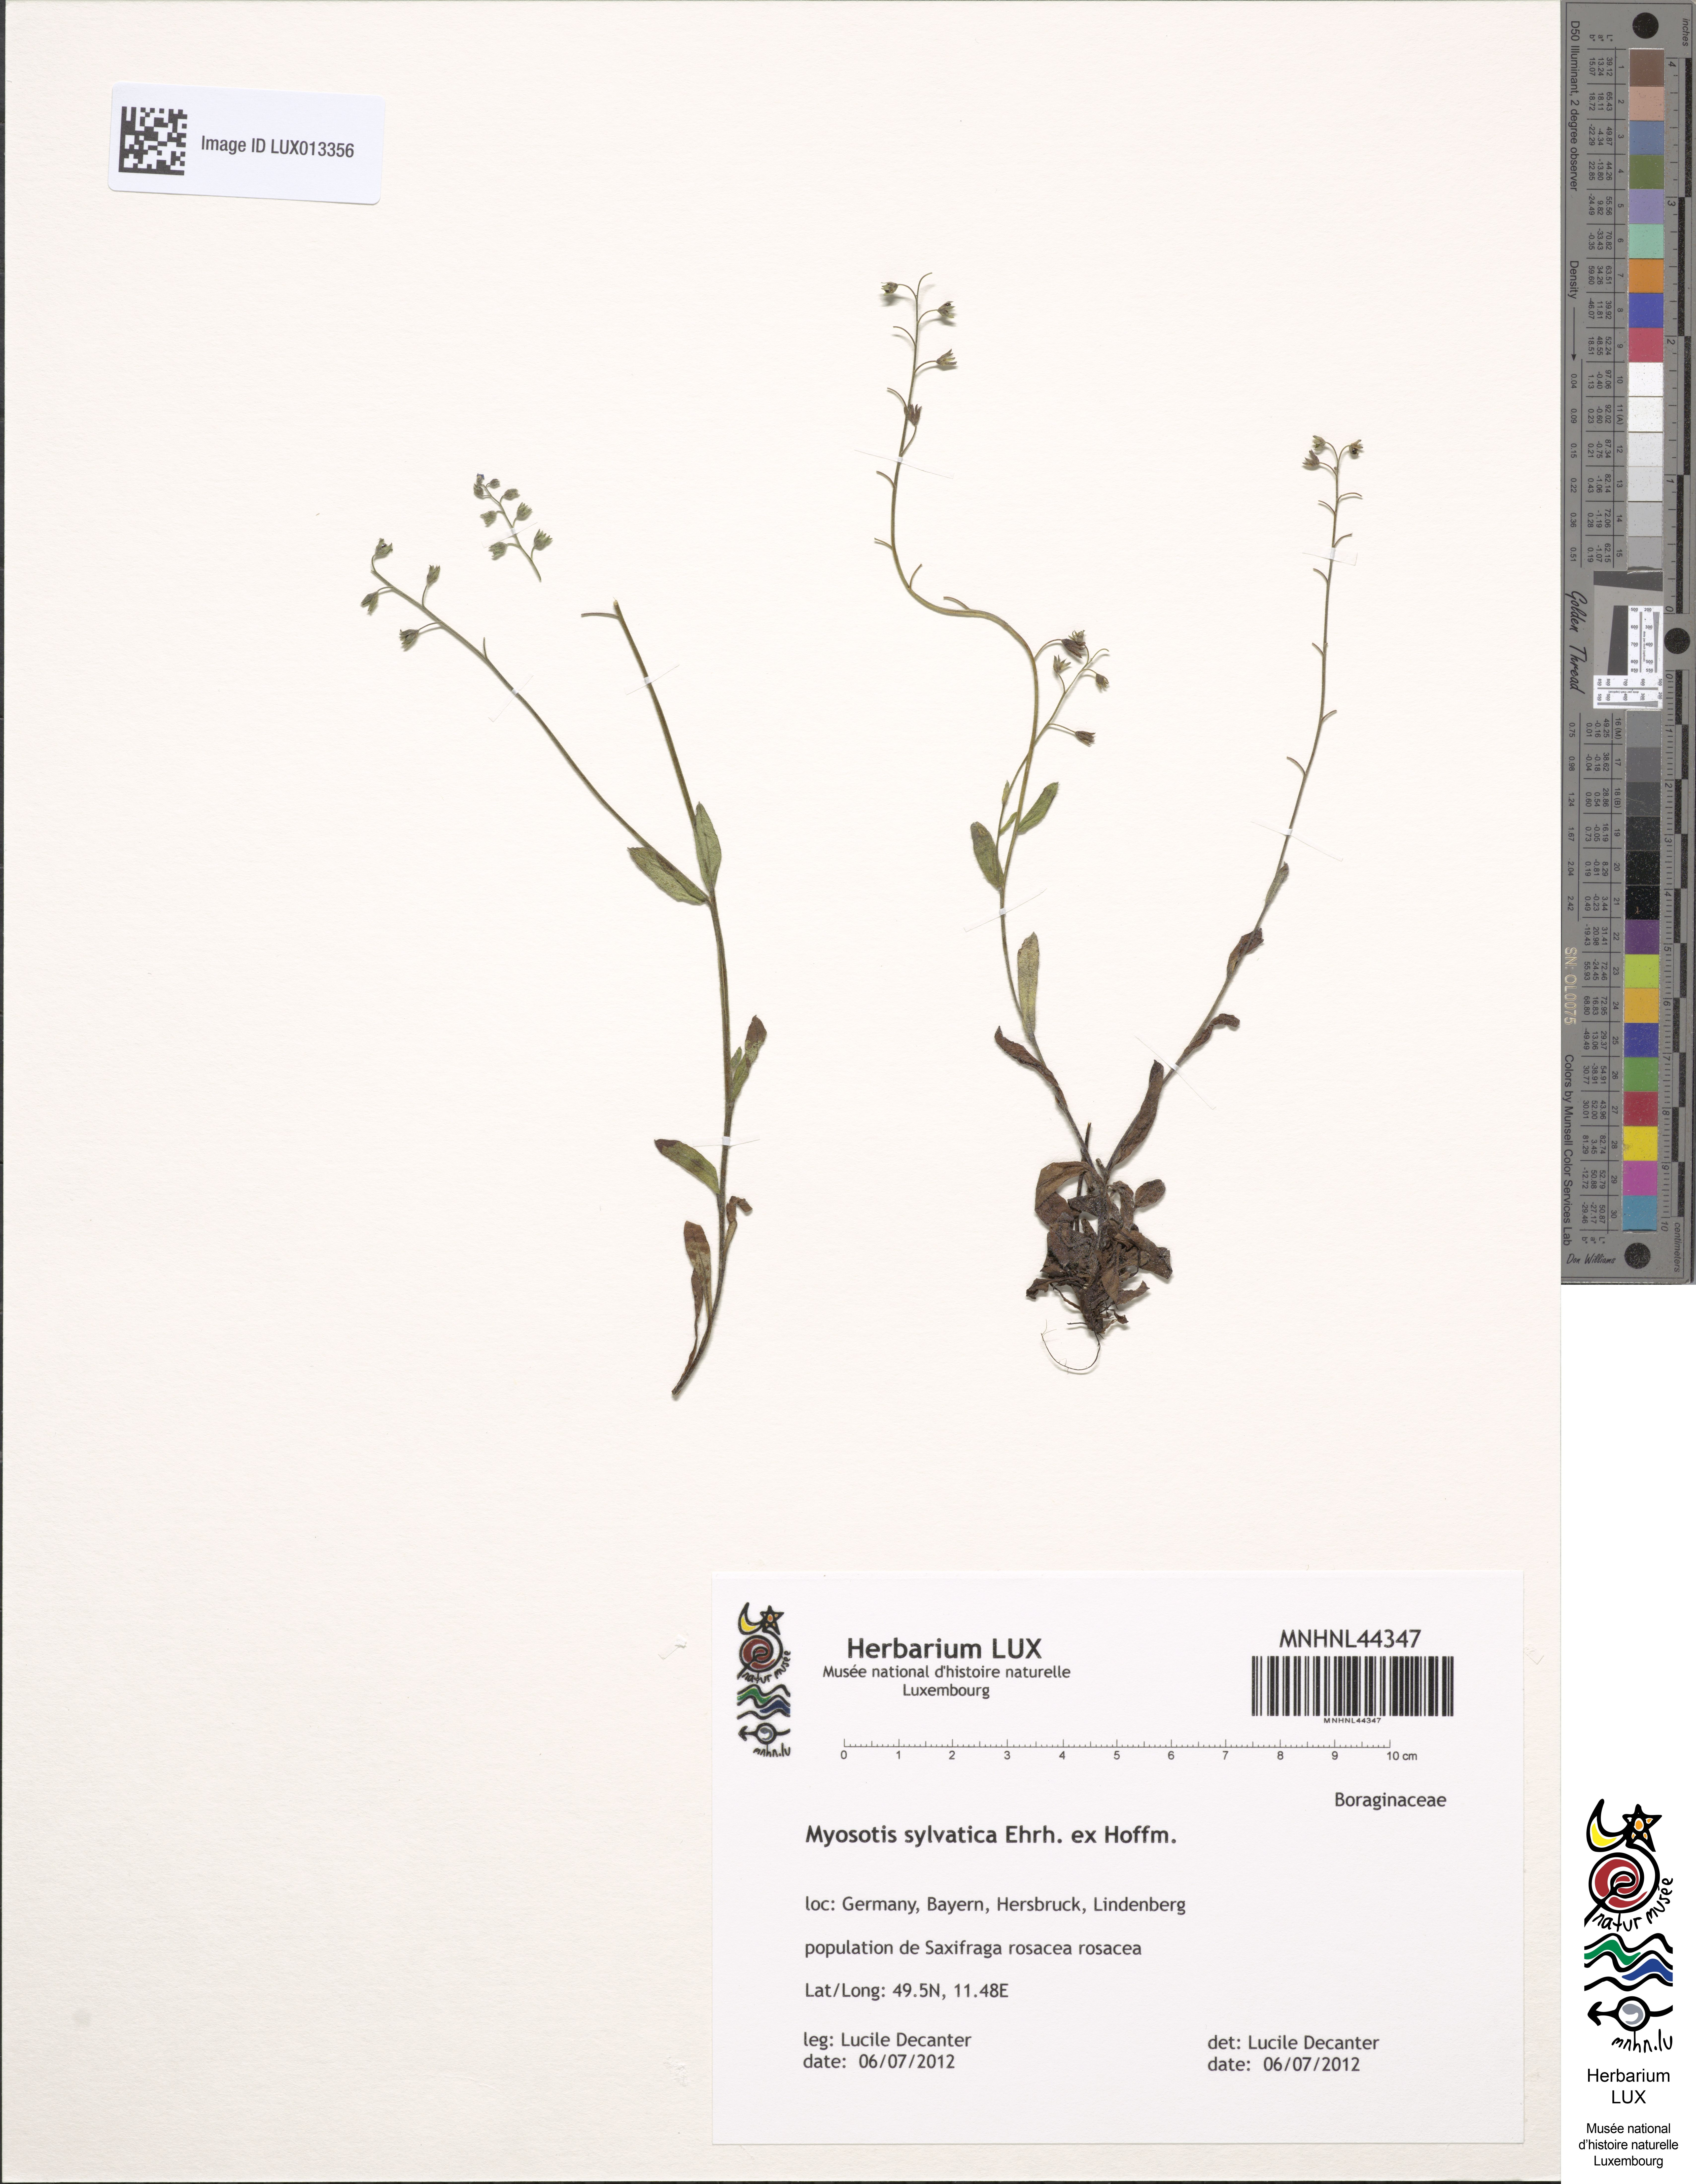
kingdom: Plantae
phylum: Tracheophyta
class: Magnoliopsida
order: Boraginales
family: Boraginaceae
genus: Myosotis
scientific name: Myosotis sylvatica
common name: Wood forget-me-not
